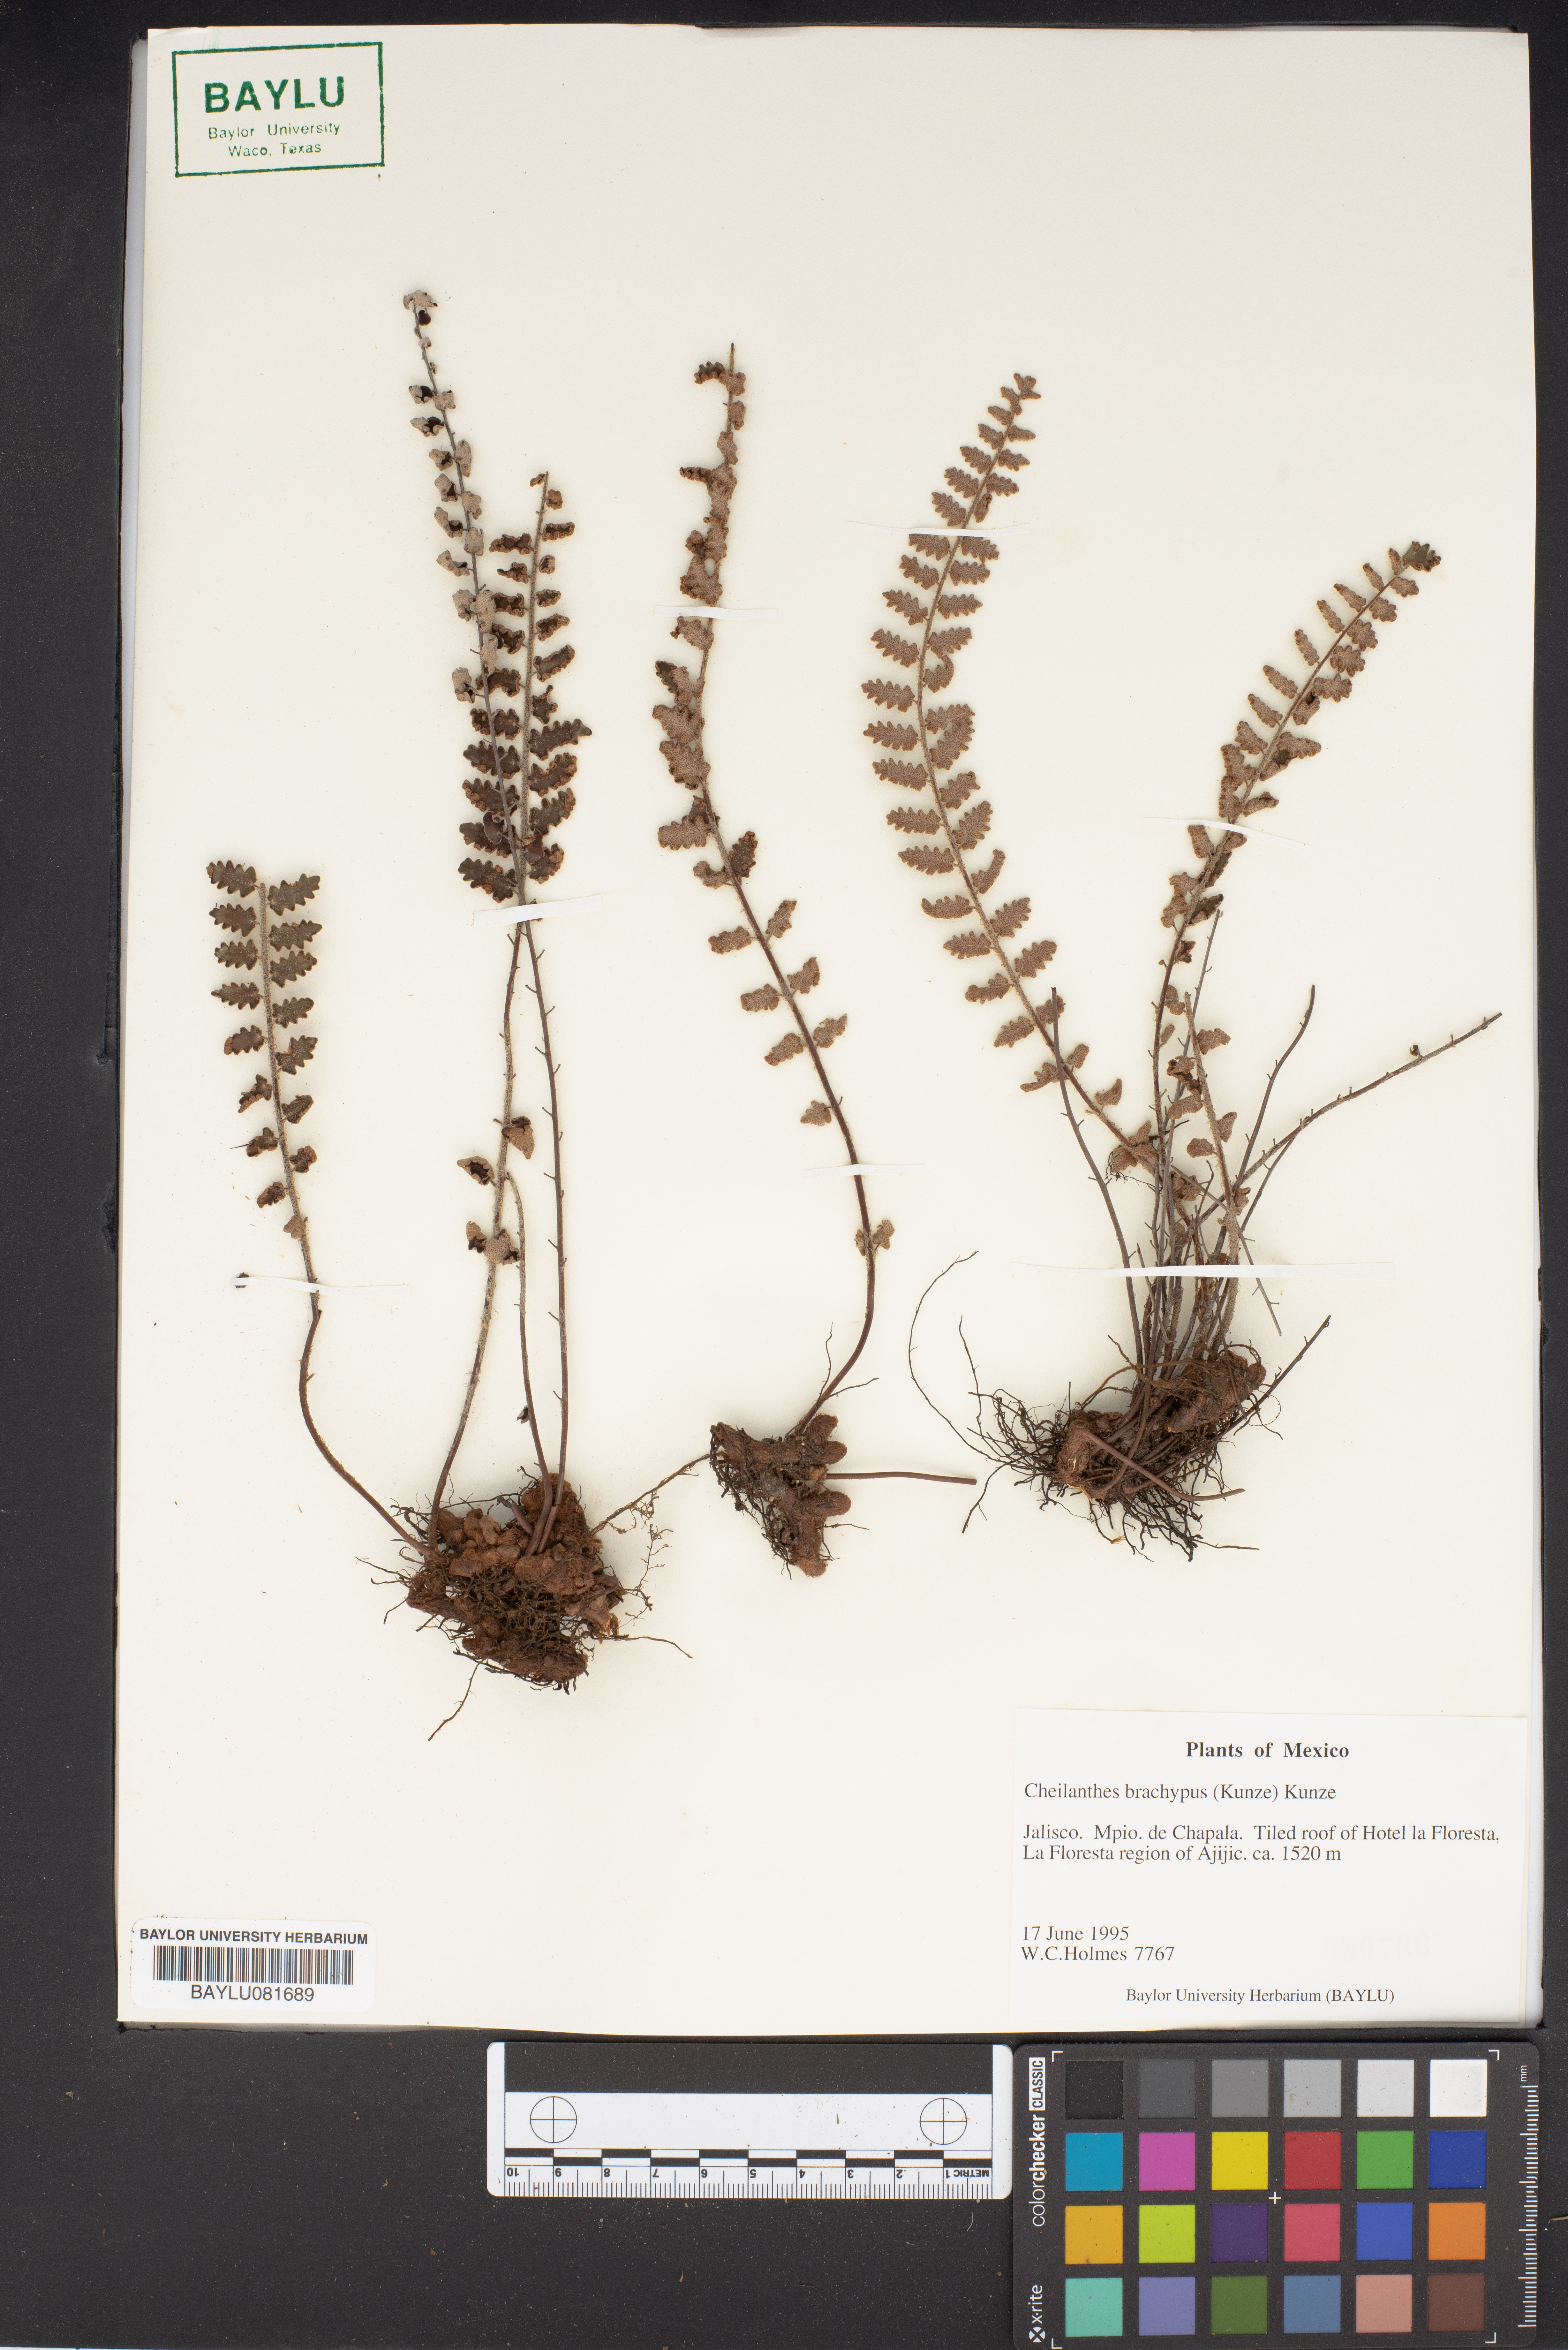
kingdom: Plantae
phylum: Tracheophyta
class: Polypodiopsida
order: Polypodiales
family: Pteridaceae
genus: Notholaena
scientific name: Notholaena brachypus
